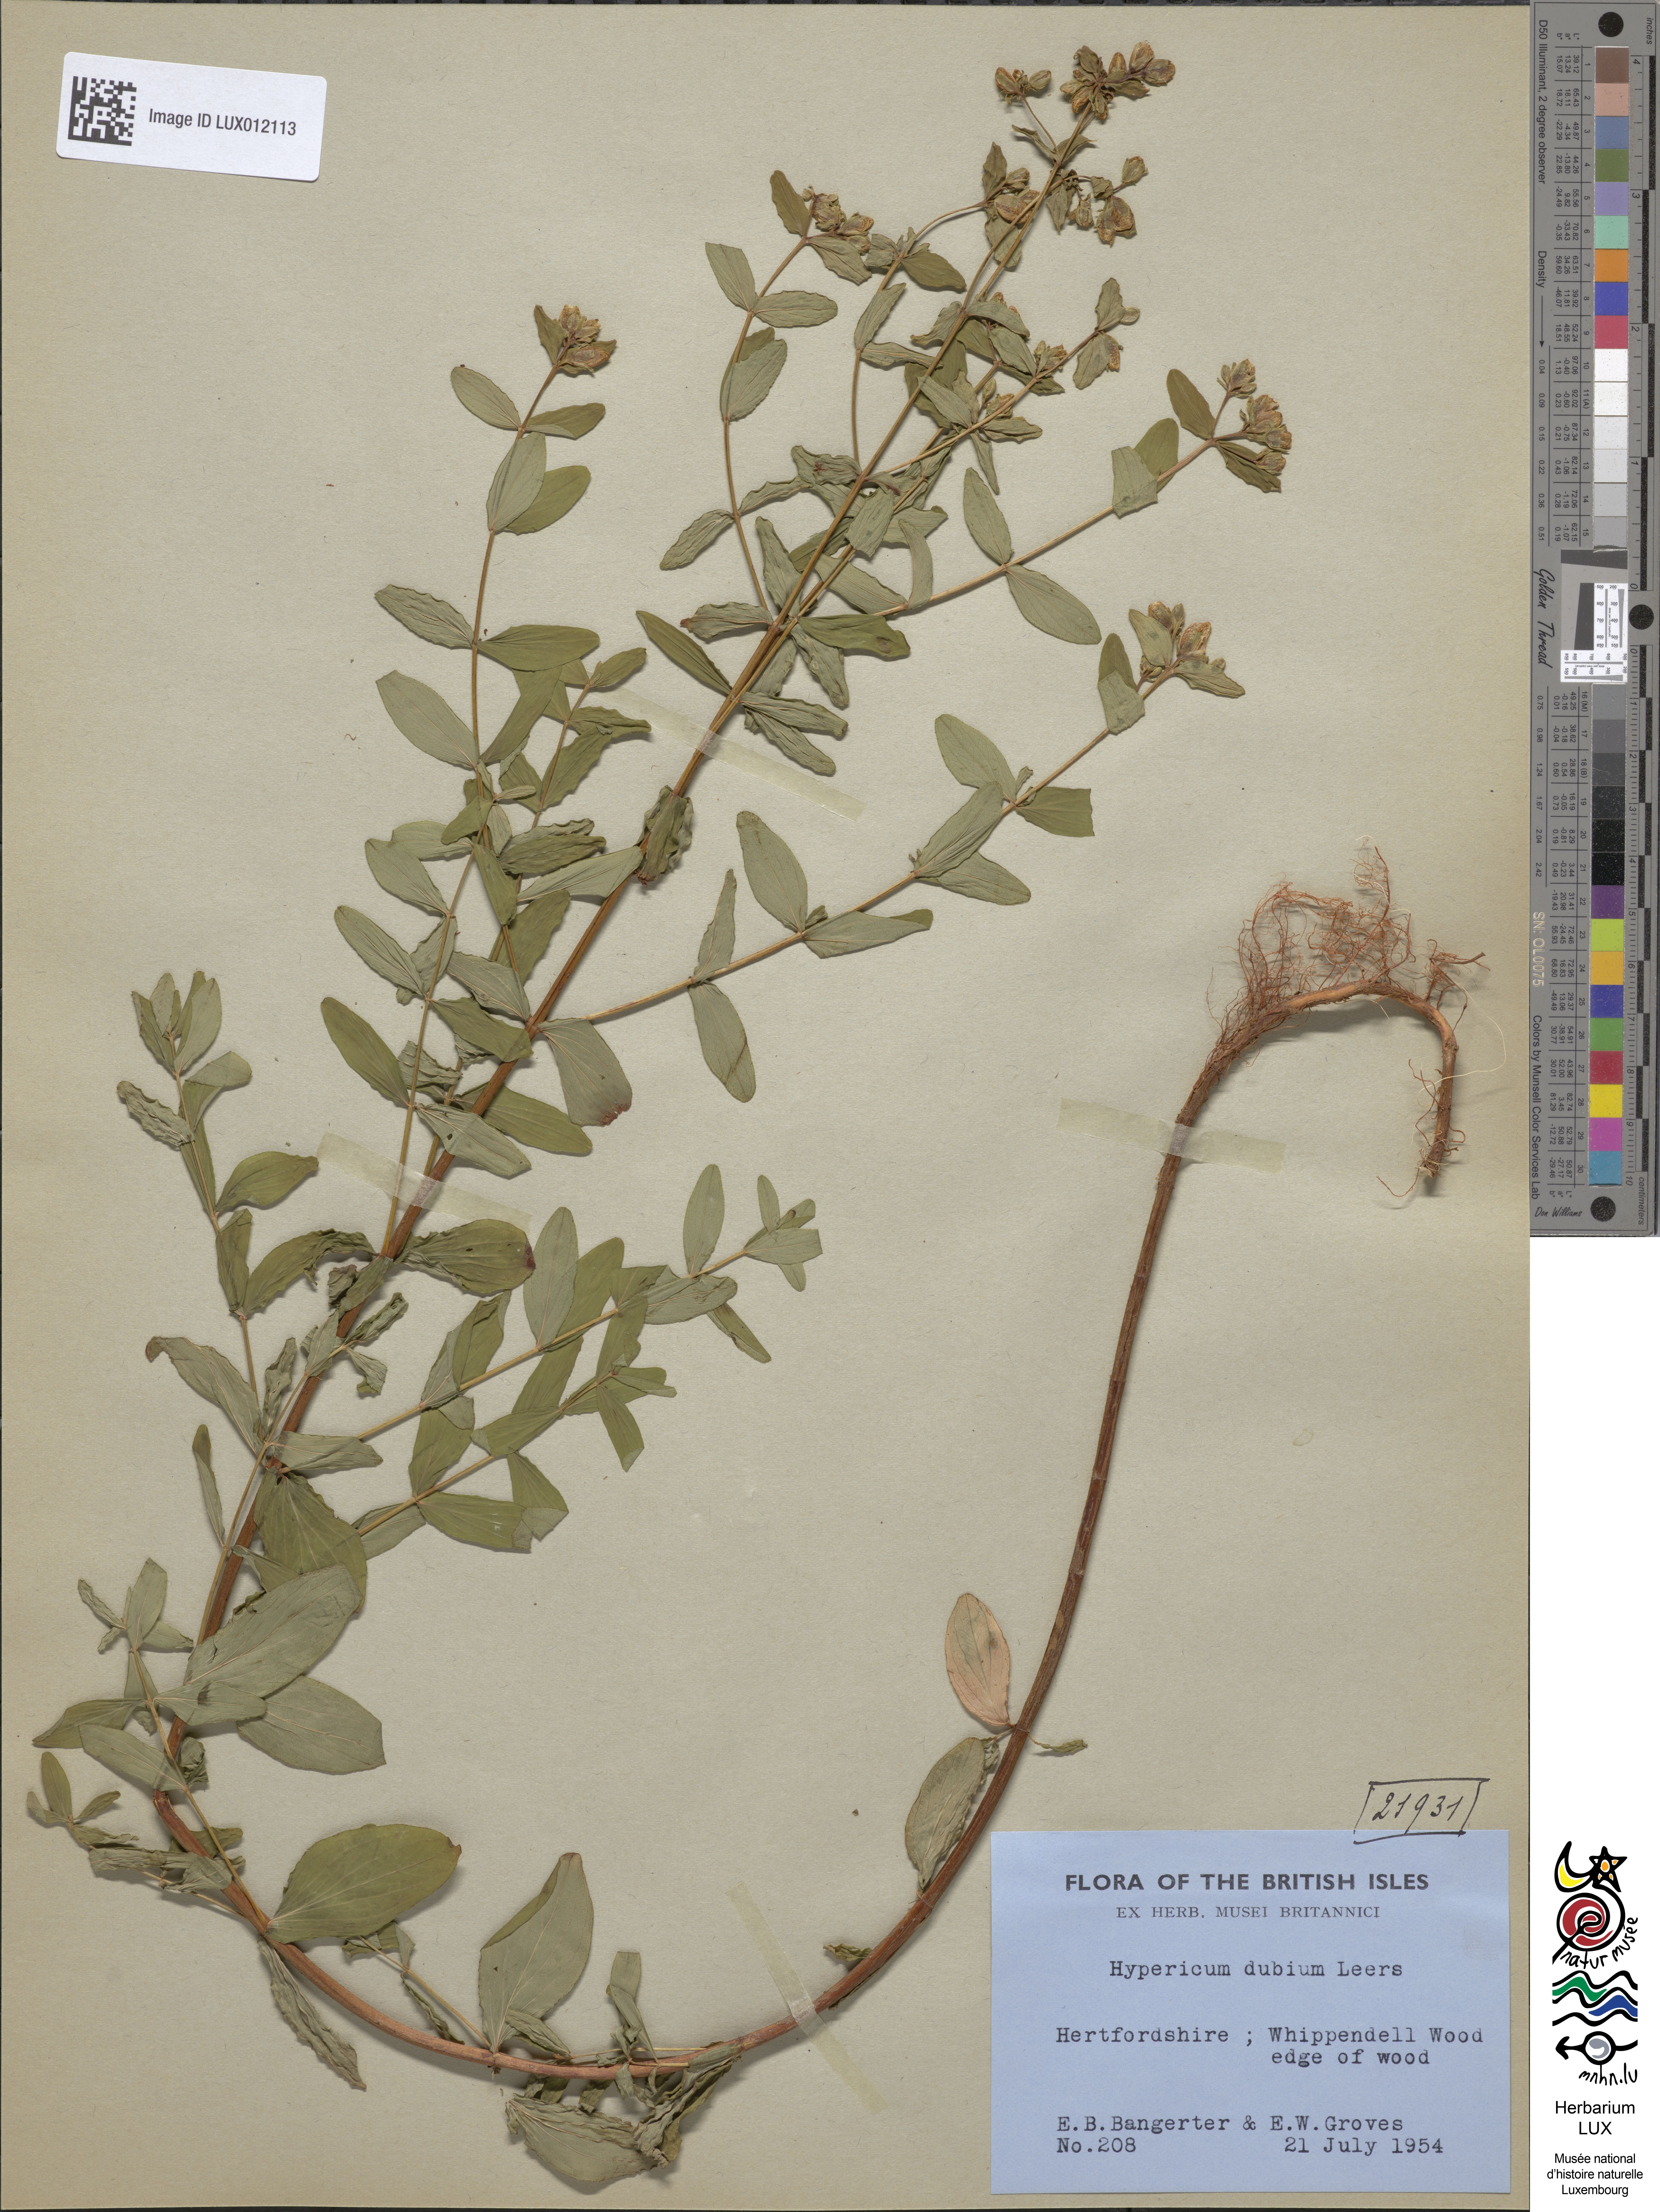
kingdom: Plantae
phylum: Tracheophyta
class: Magnoliopsida
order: Malpighiales
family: Hypericaceae
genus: Hypericum
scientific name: Hypericum tetrapterum
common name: Square-stalked st. john's-wort
